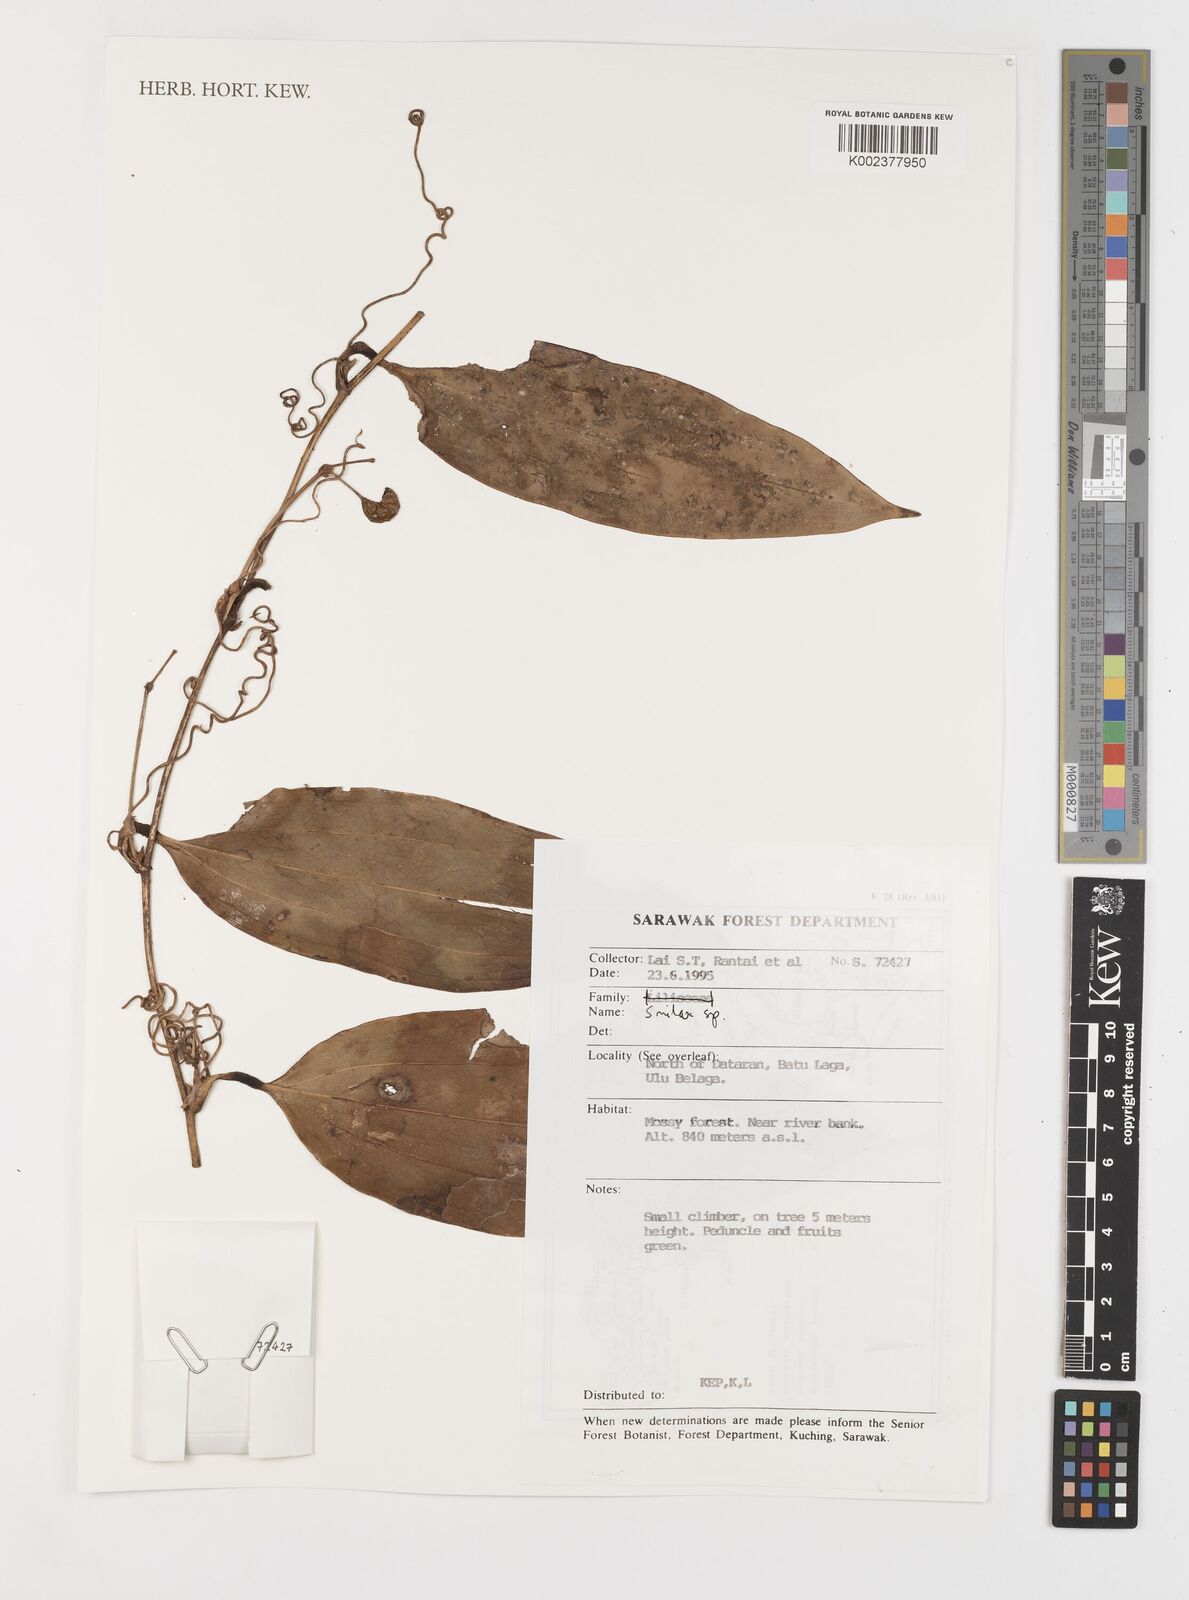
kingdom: Plantae
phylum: Tracheophyta
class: Liliopsida
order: Liliales
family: Smilacaceae
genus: Smilax
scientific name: Smilax
